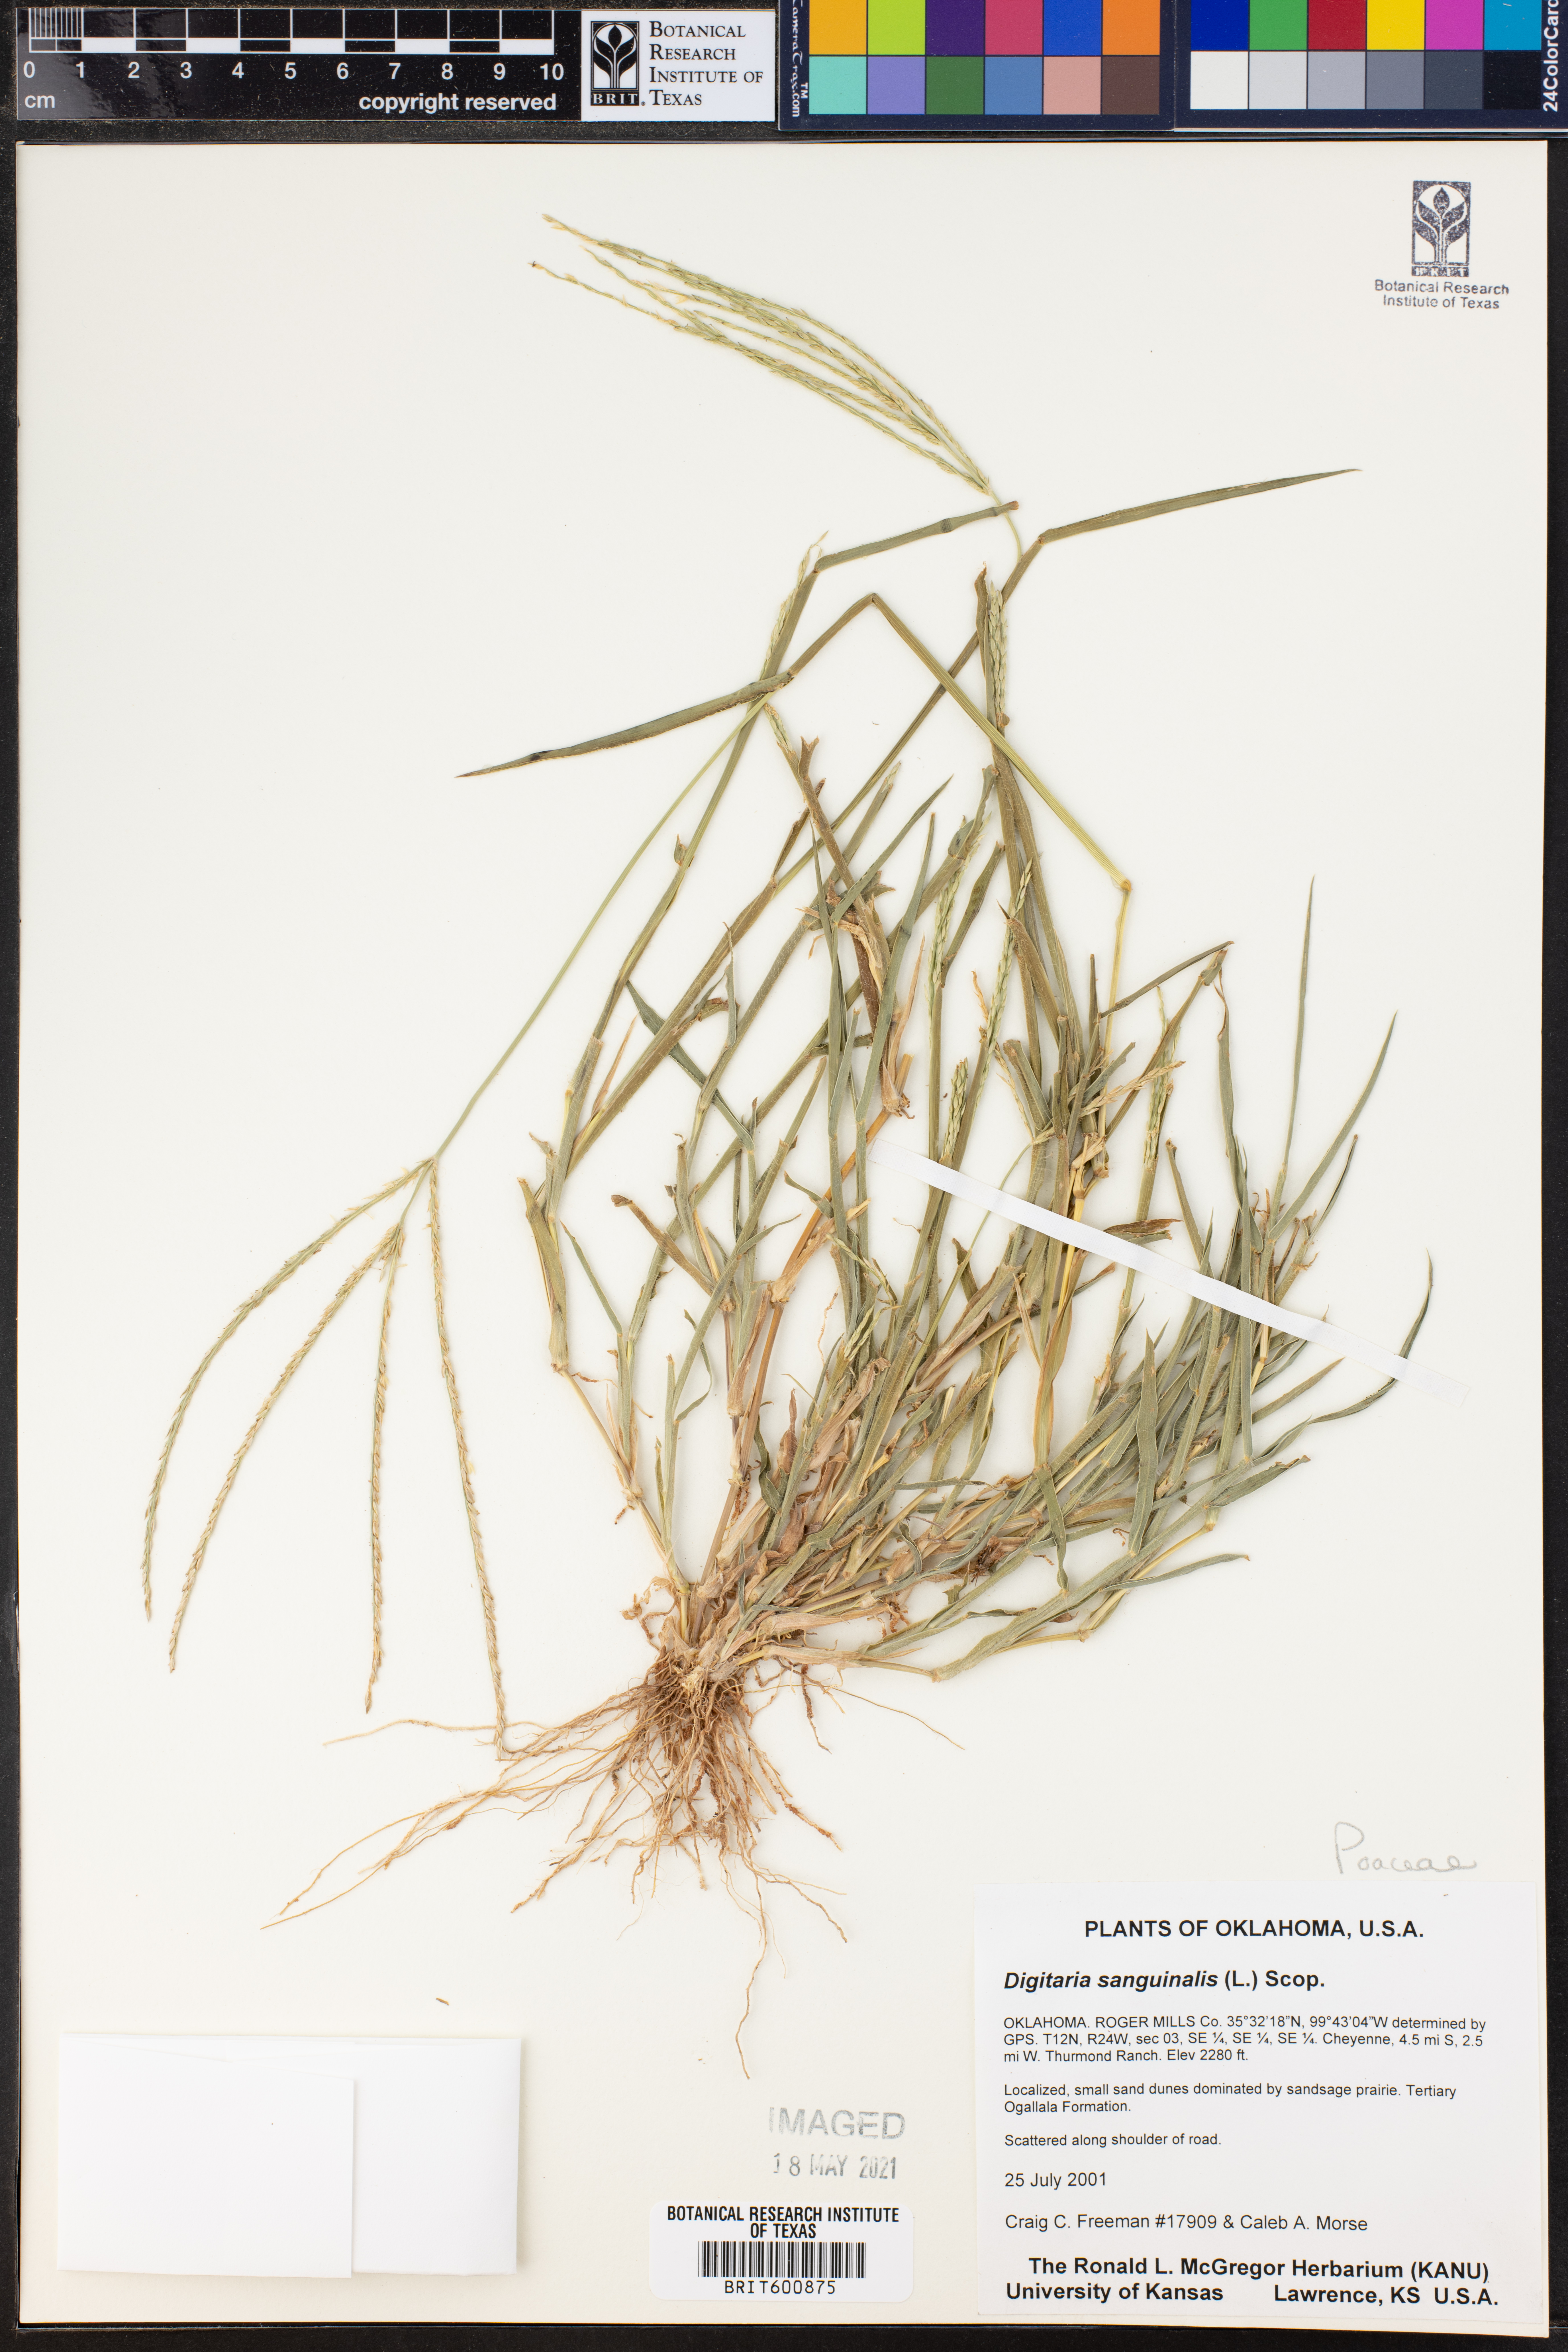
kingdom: Plantae
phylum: Tracheophyta
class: Liliopsida
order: Poales
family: Poaceae
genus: Digitaria
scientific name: Digitaria sanguinalis
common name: Hairy crabgrass
